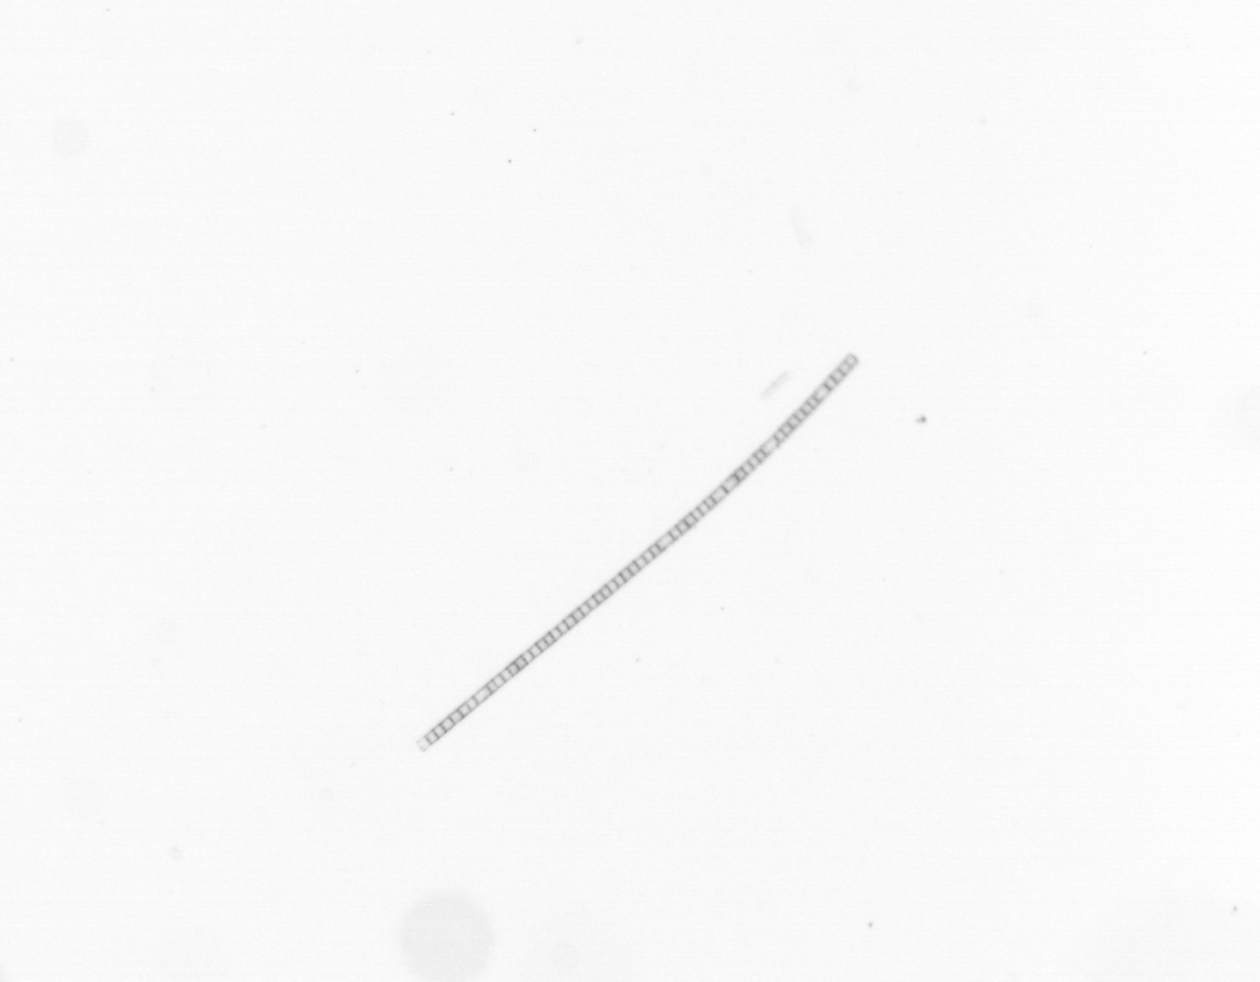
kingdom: Chromista
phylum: Ochrophyta
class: Bacillariophyceae
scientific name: Bacillariophyceae
